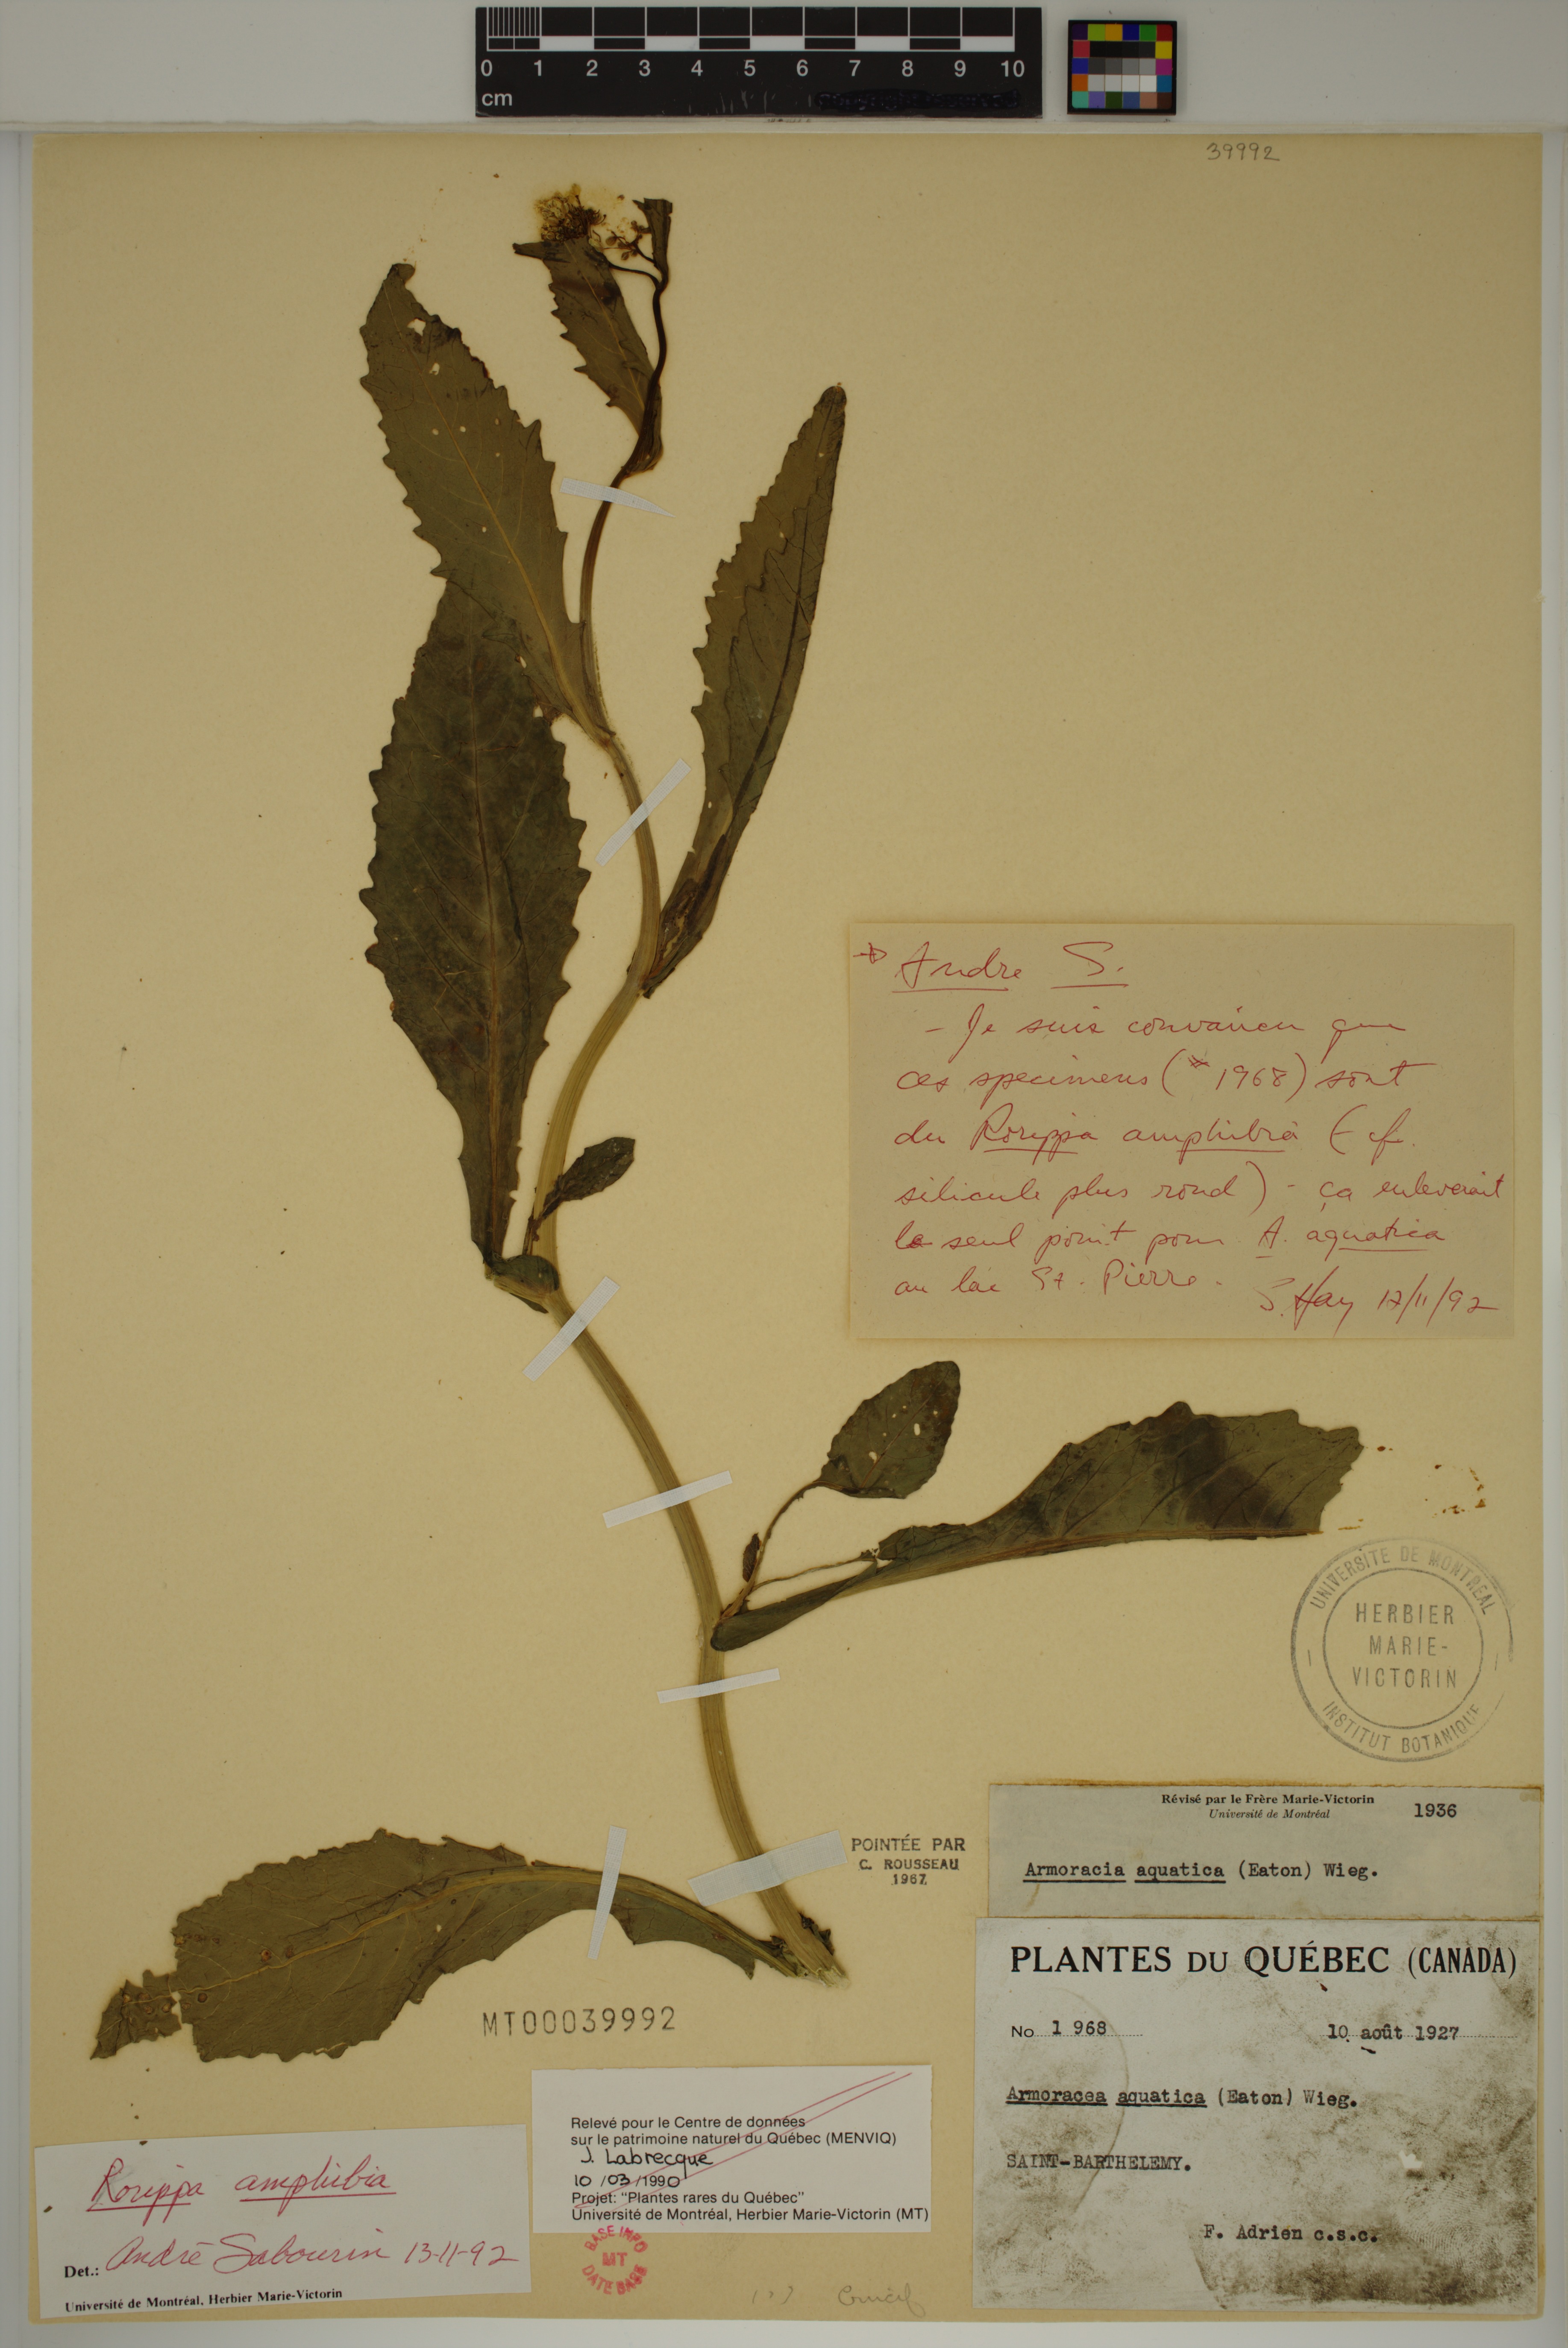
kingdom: Plantae
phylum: Tracheophyta
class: Magnoliopsida
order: Brassicales
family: Brassicaceae
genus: Rorippa
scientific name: Rorippa amphibia
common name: Great yellow-cress
